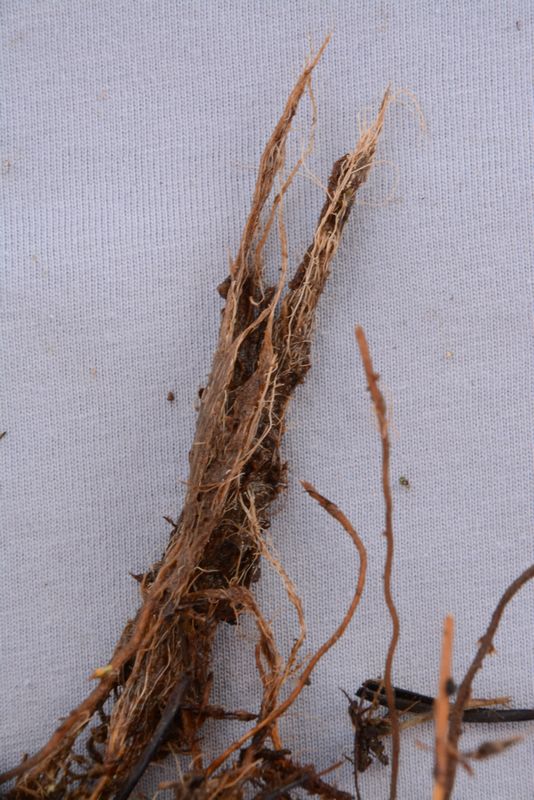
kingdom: Plantae
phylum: Tracheophyta
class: Liliopsida
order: Poales
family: Cyperaceae
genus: Carex
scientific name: Carex limosa
